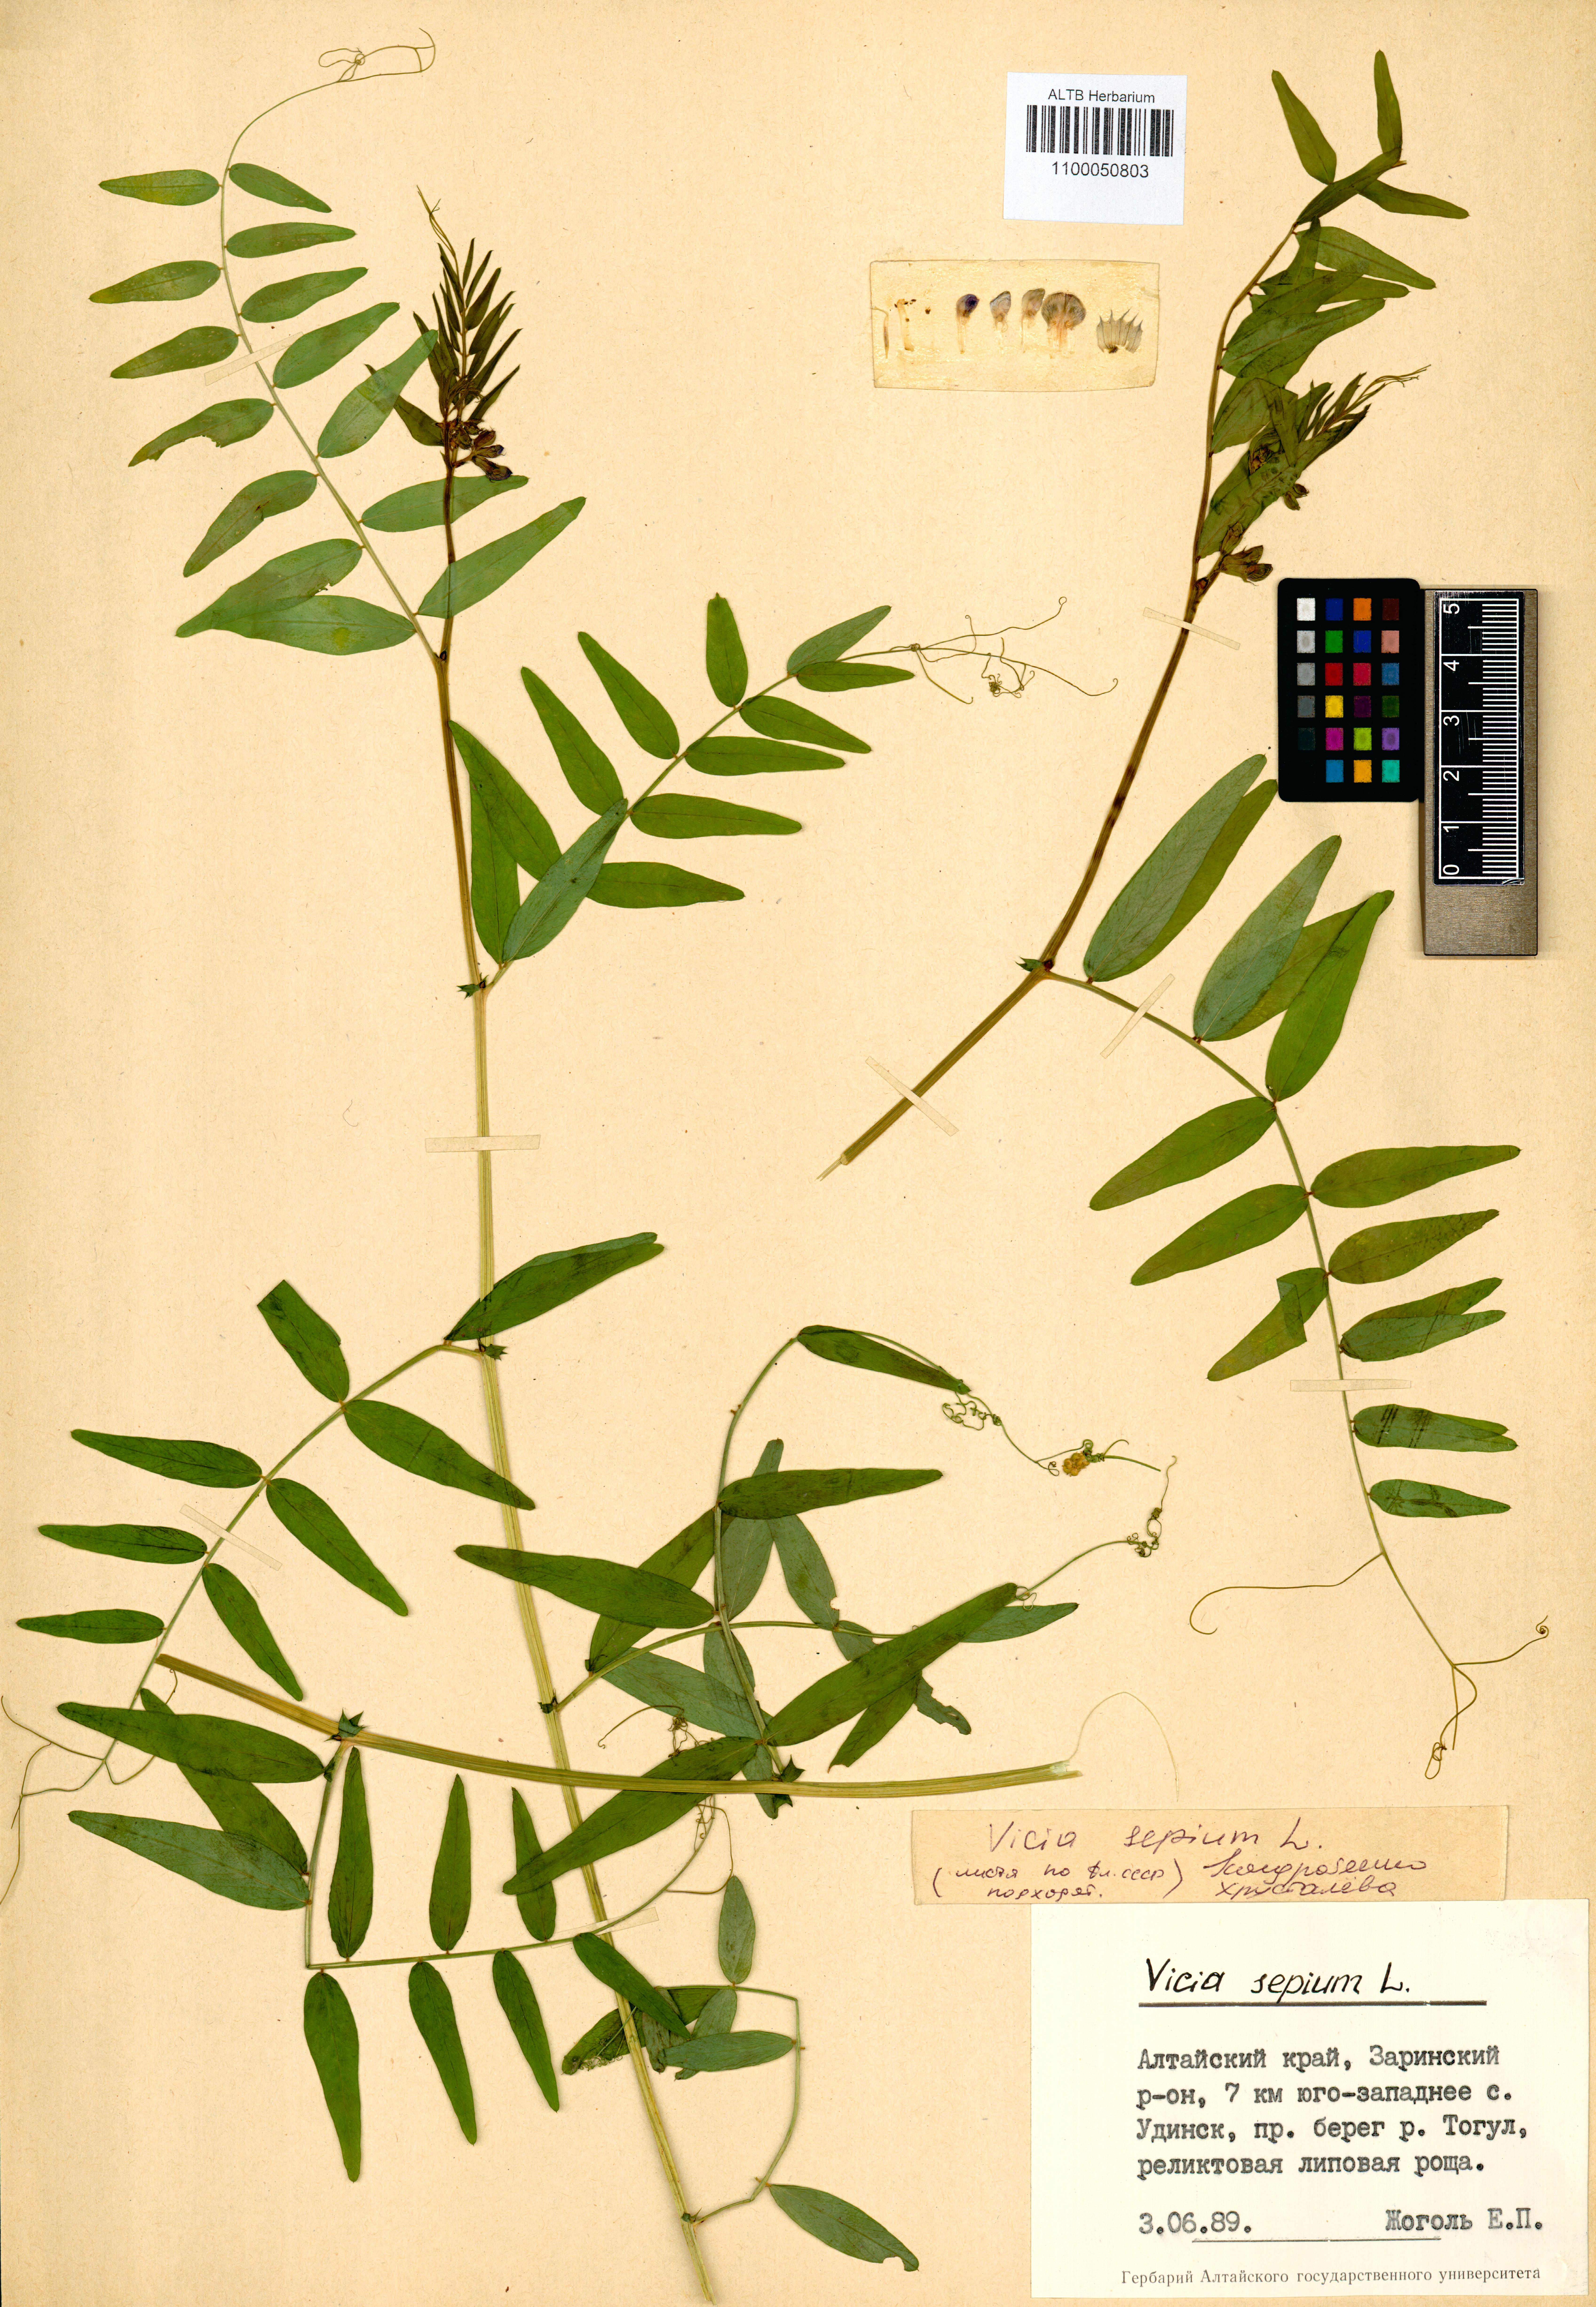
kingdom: Plantae
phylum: Tracheophyta
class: Magnoliopsida
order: Fabales
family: Fabaceae
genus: Vicia
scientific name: Vicia sepium
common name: Bush vetch
